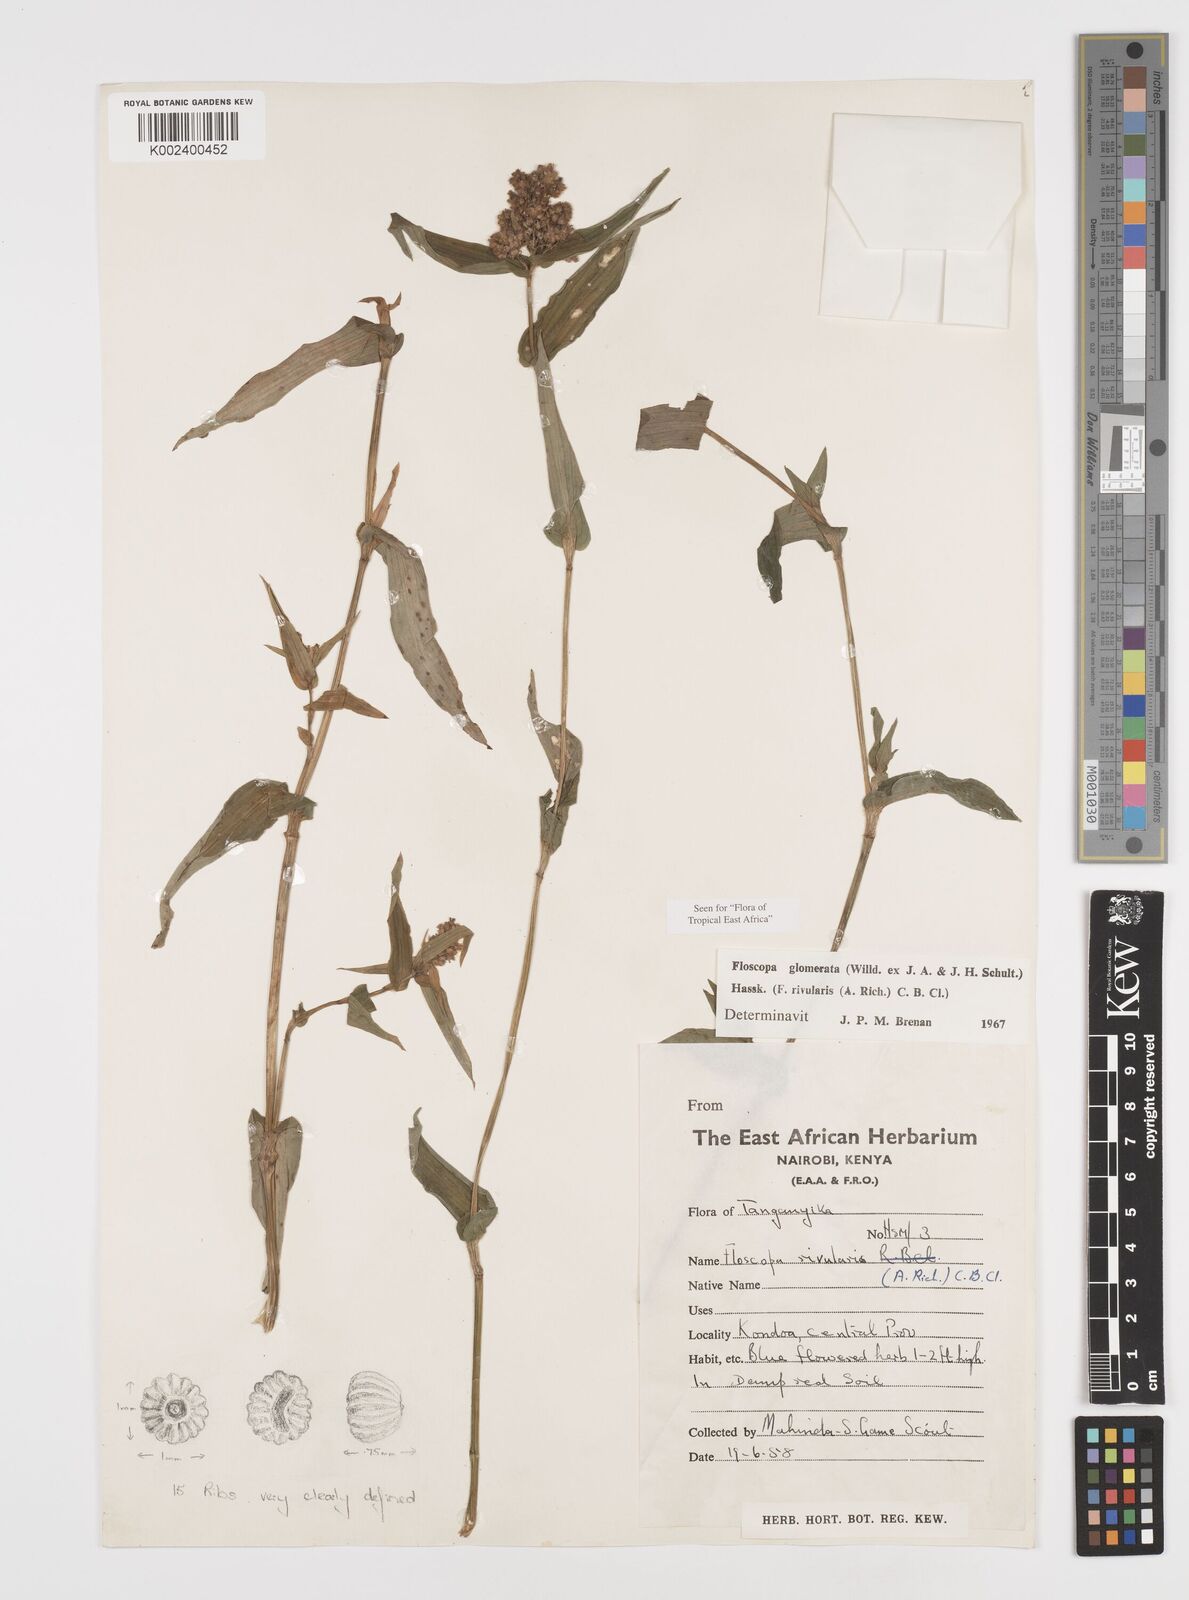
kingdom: Plantae
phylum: Tracheophyta
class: Liliopsida
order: Commelinales
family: Commelinaceae
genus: Floscopa
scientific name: Floscopa glomerata
